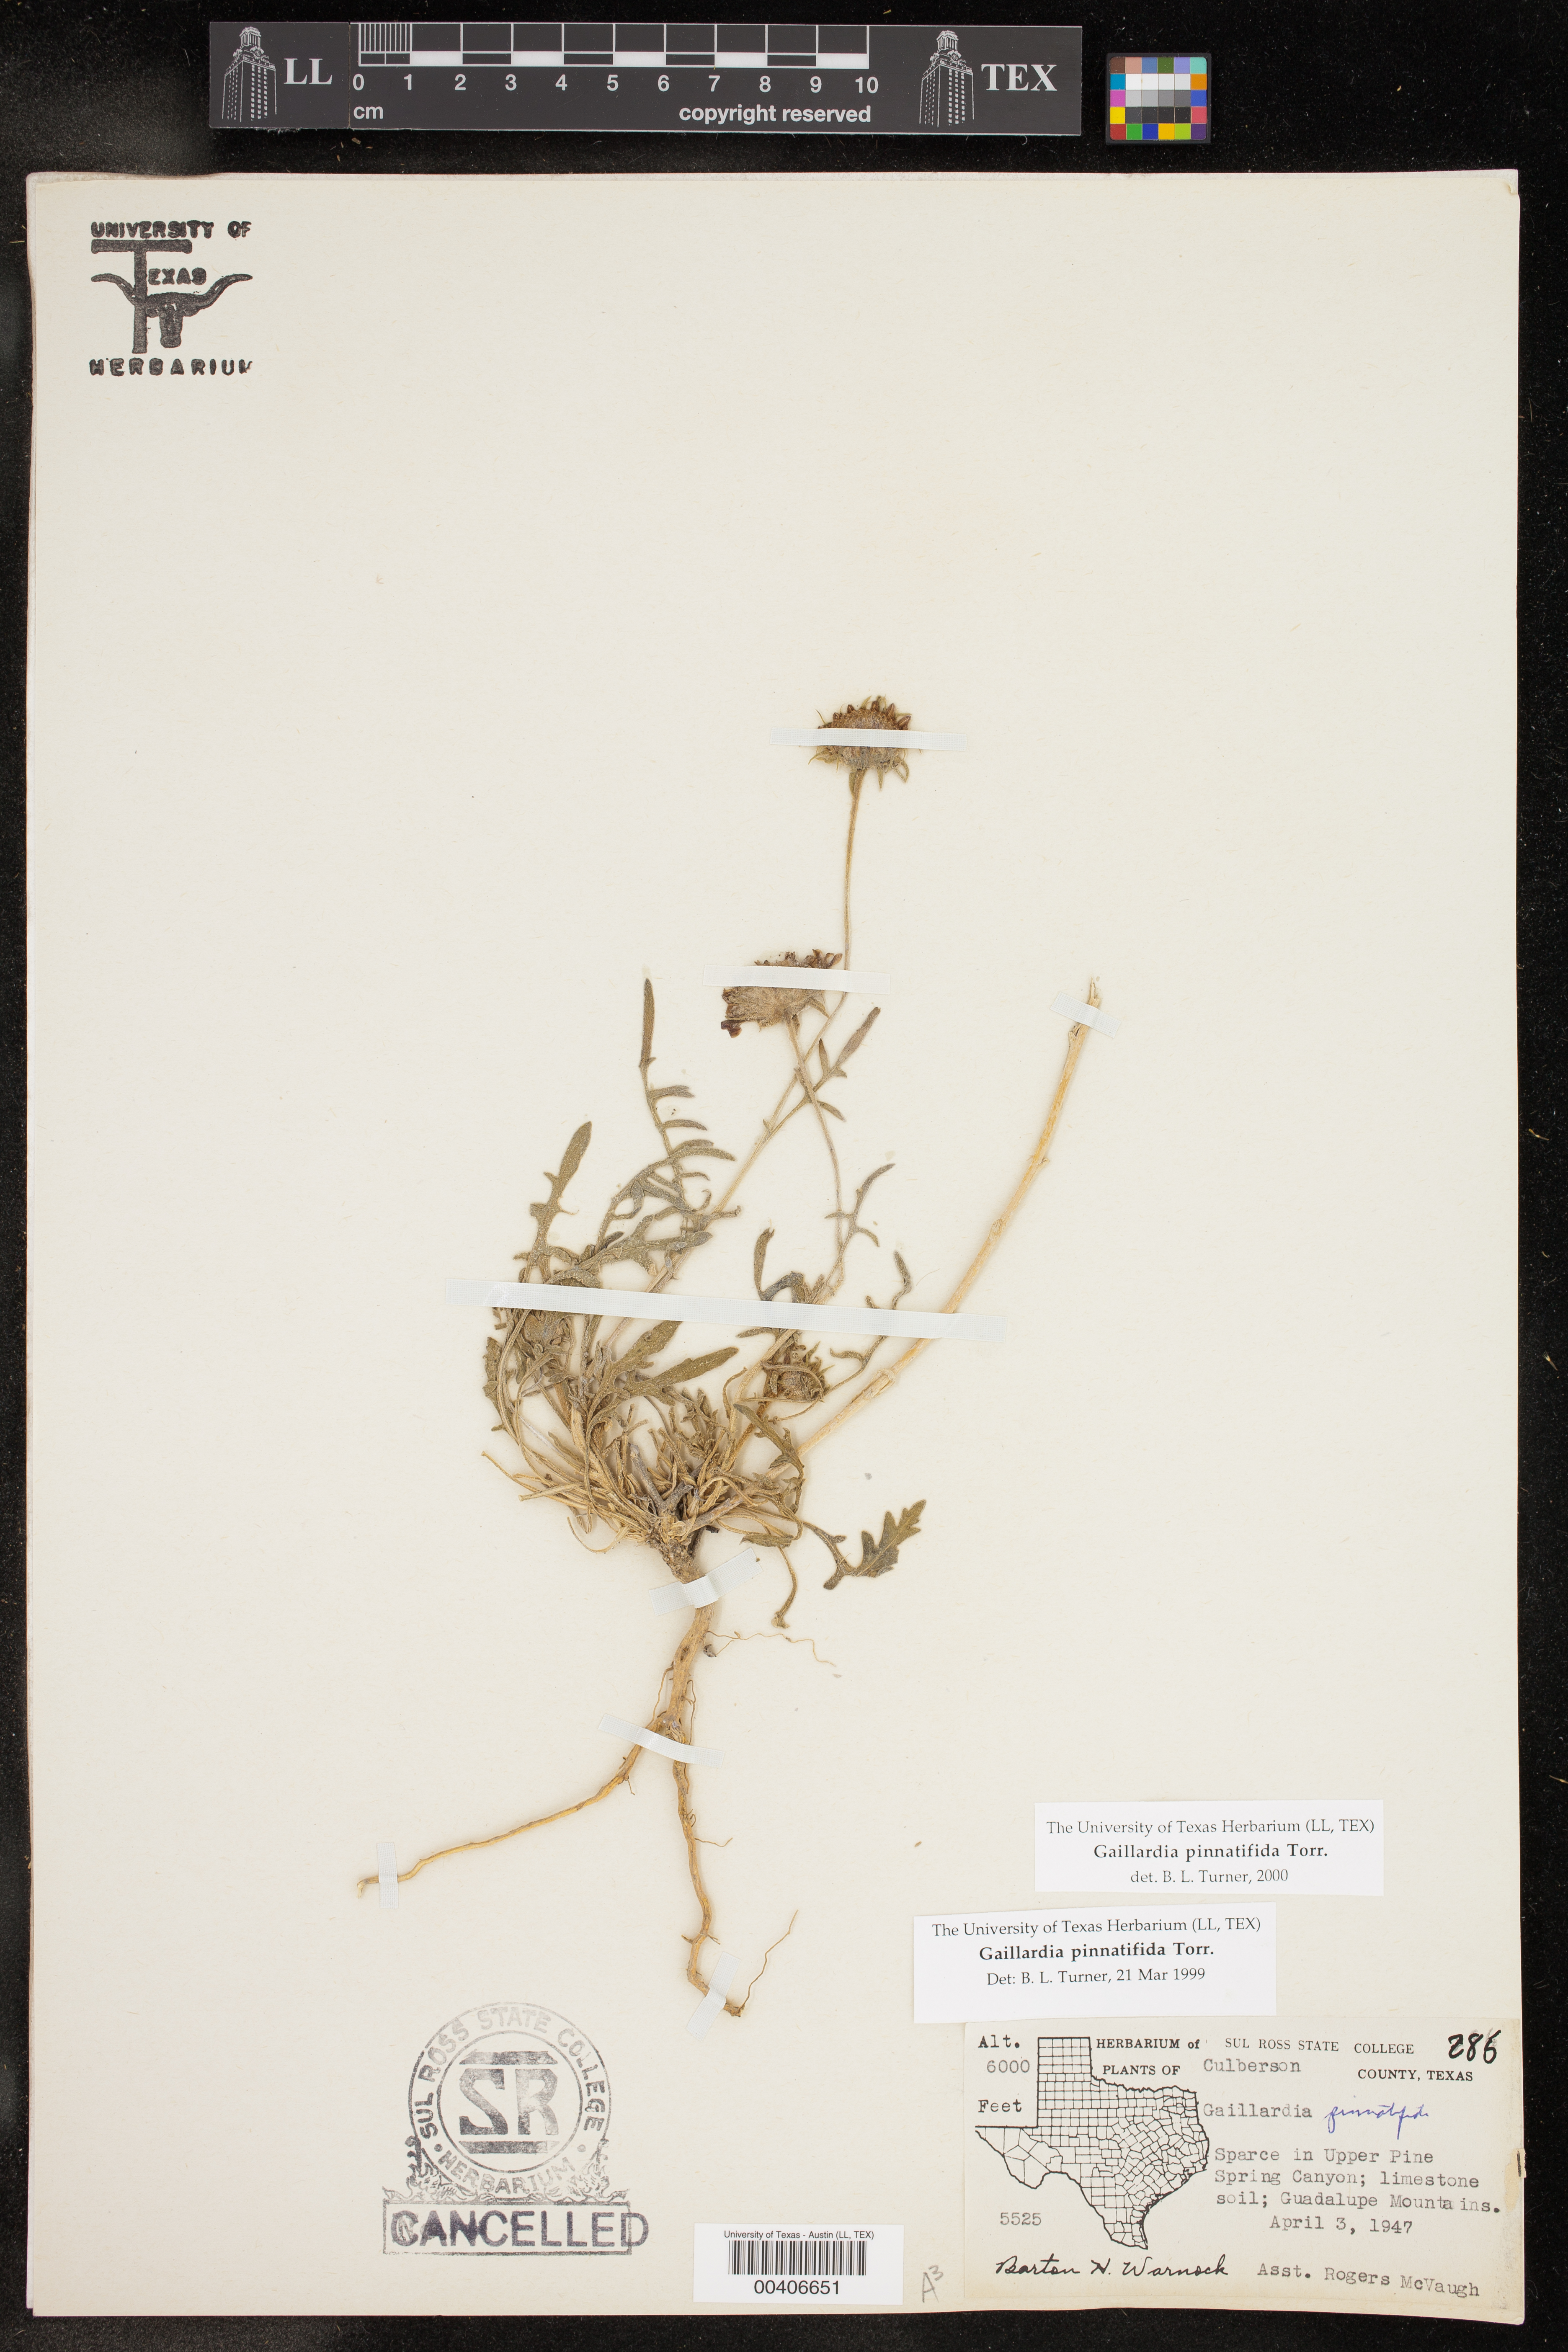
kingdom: Plantae
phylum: Tracheophyta
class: Magnoliopsida
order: Asterales
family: Asteraceae
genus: Gaillardia
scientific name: Gaillardia pinnatifida
